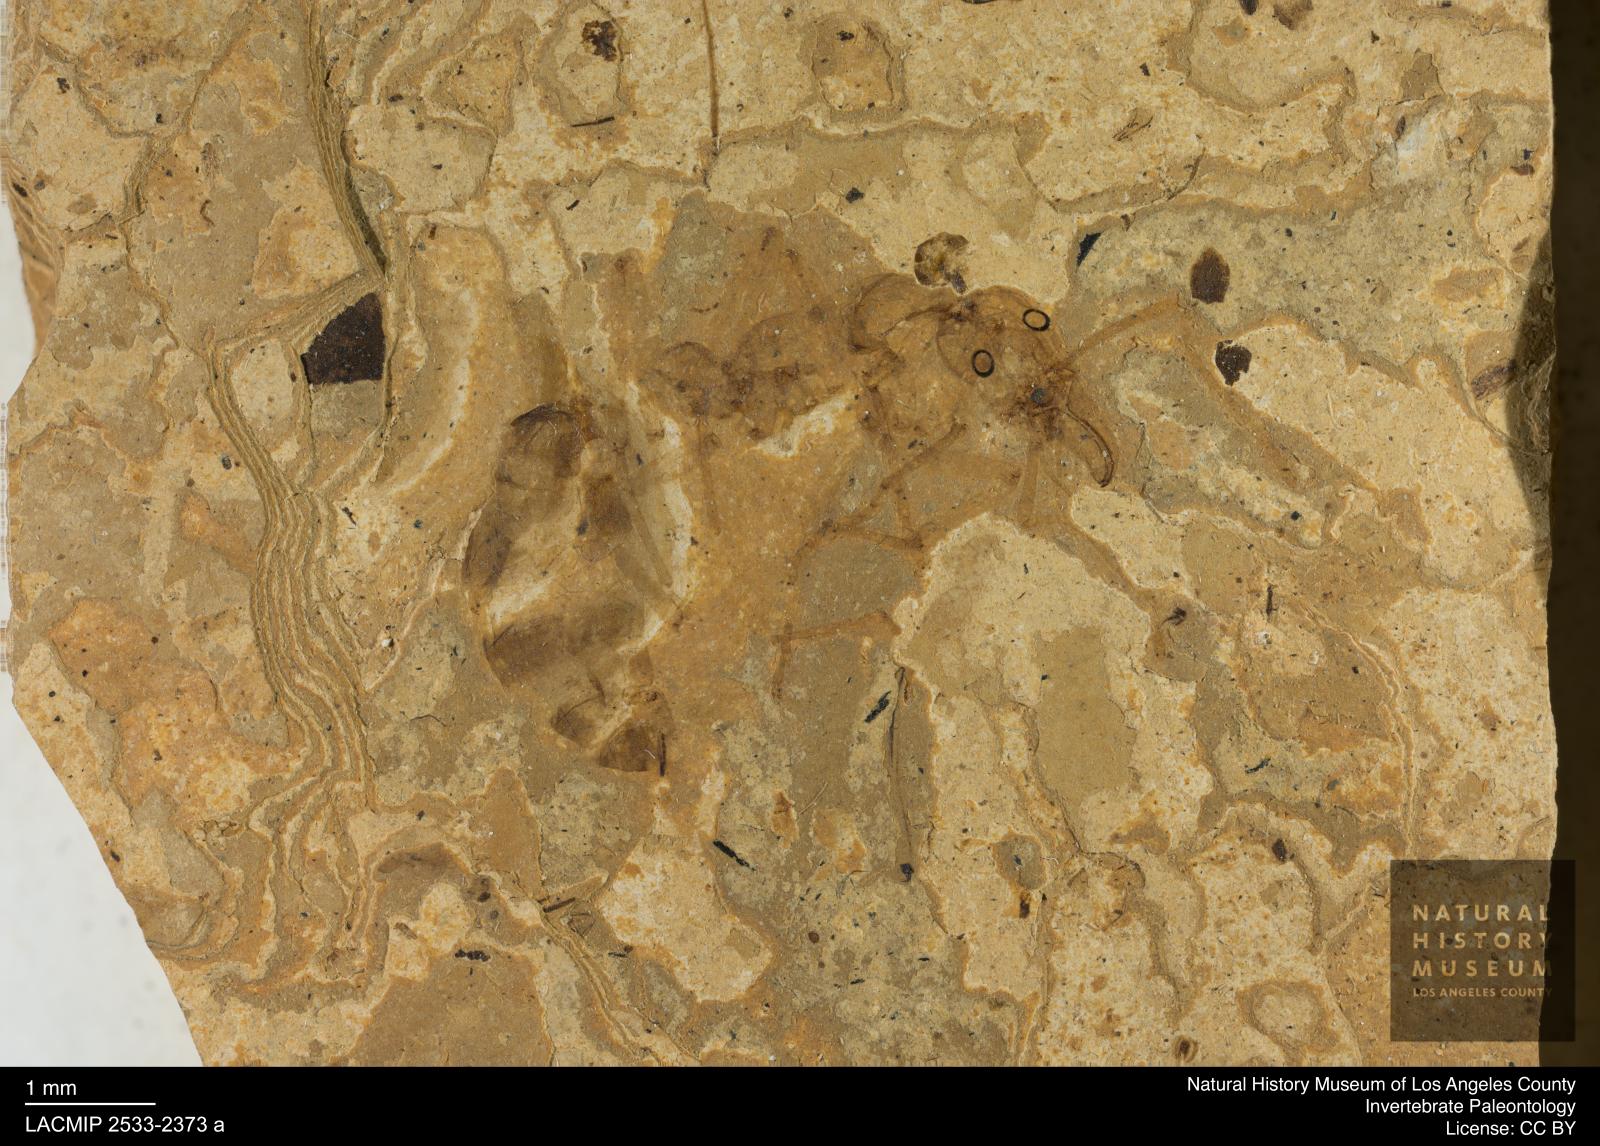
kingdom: Animalia
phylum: Arthropoda
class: Insecta
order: Hymenoptera
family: Formicidae
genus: Prionomyrmex
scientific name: Prionomyrmex wappleri
